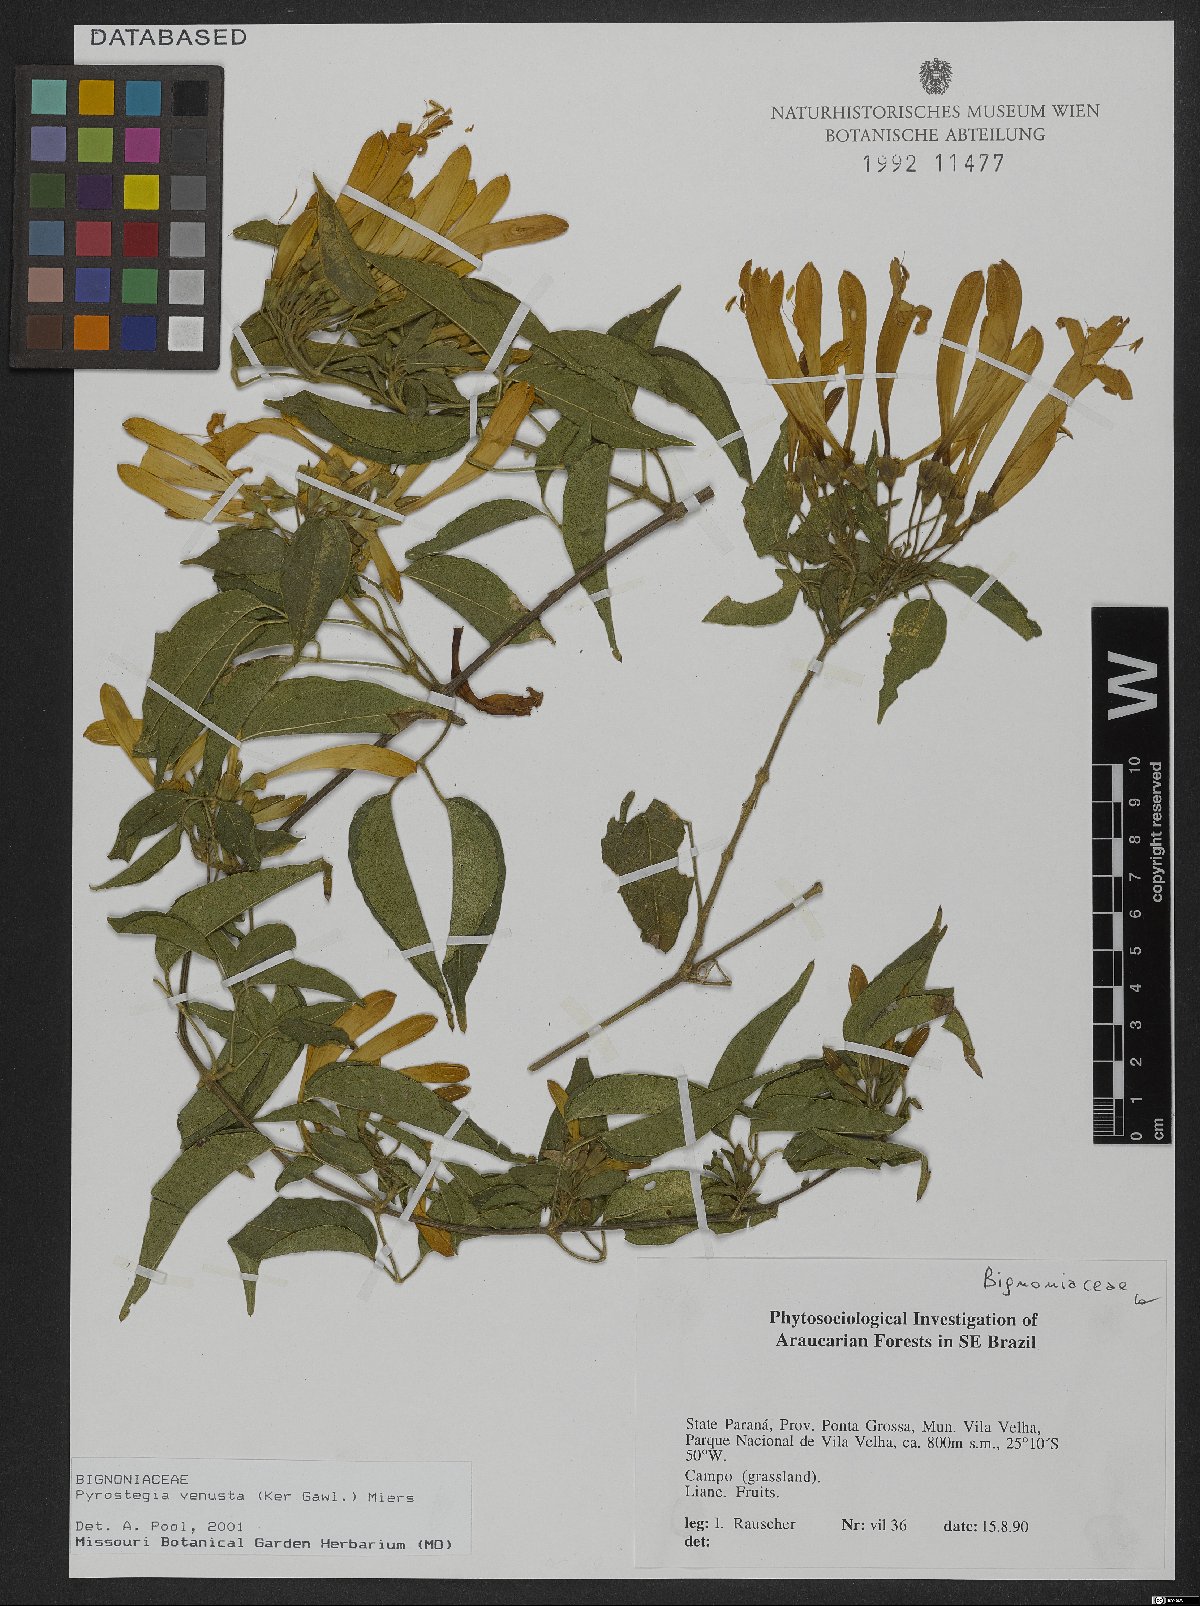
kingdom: Plantae
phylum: Tracheophyta
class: Magnoliopsida
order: Lamiales
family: Bignoniaceae
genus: Pyrostegia
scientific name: Pyrostegia venusta
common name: Flamevine
